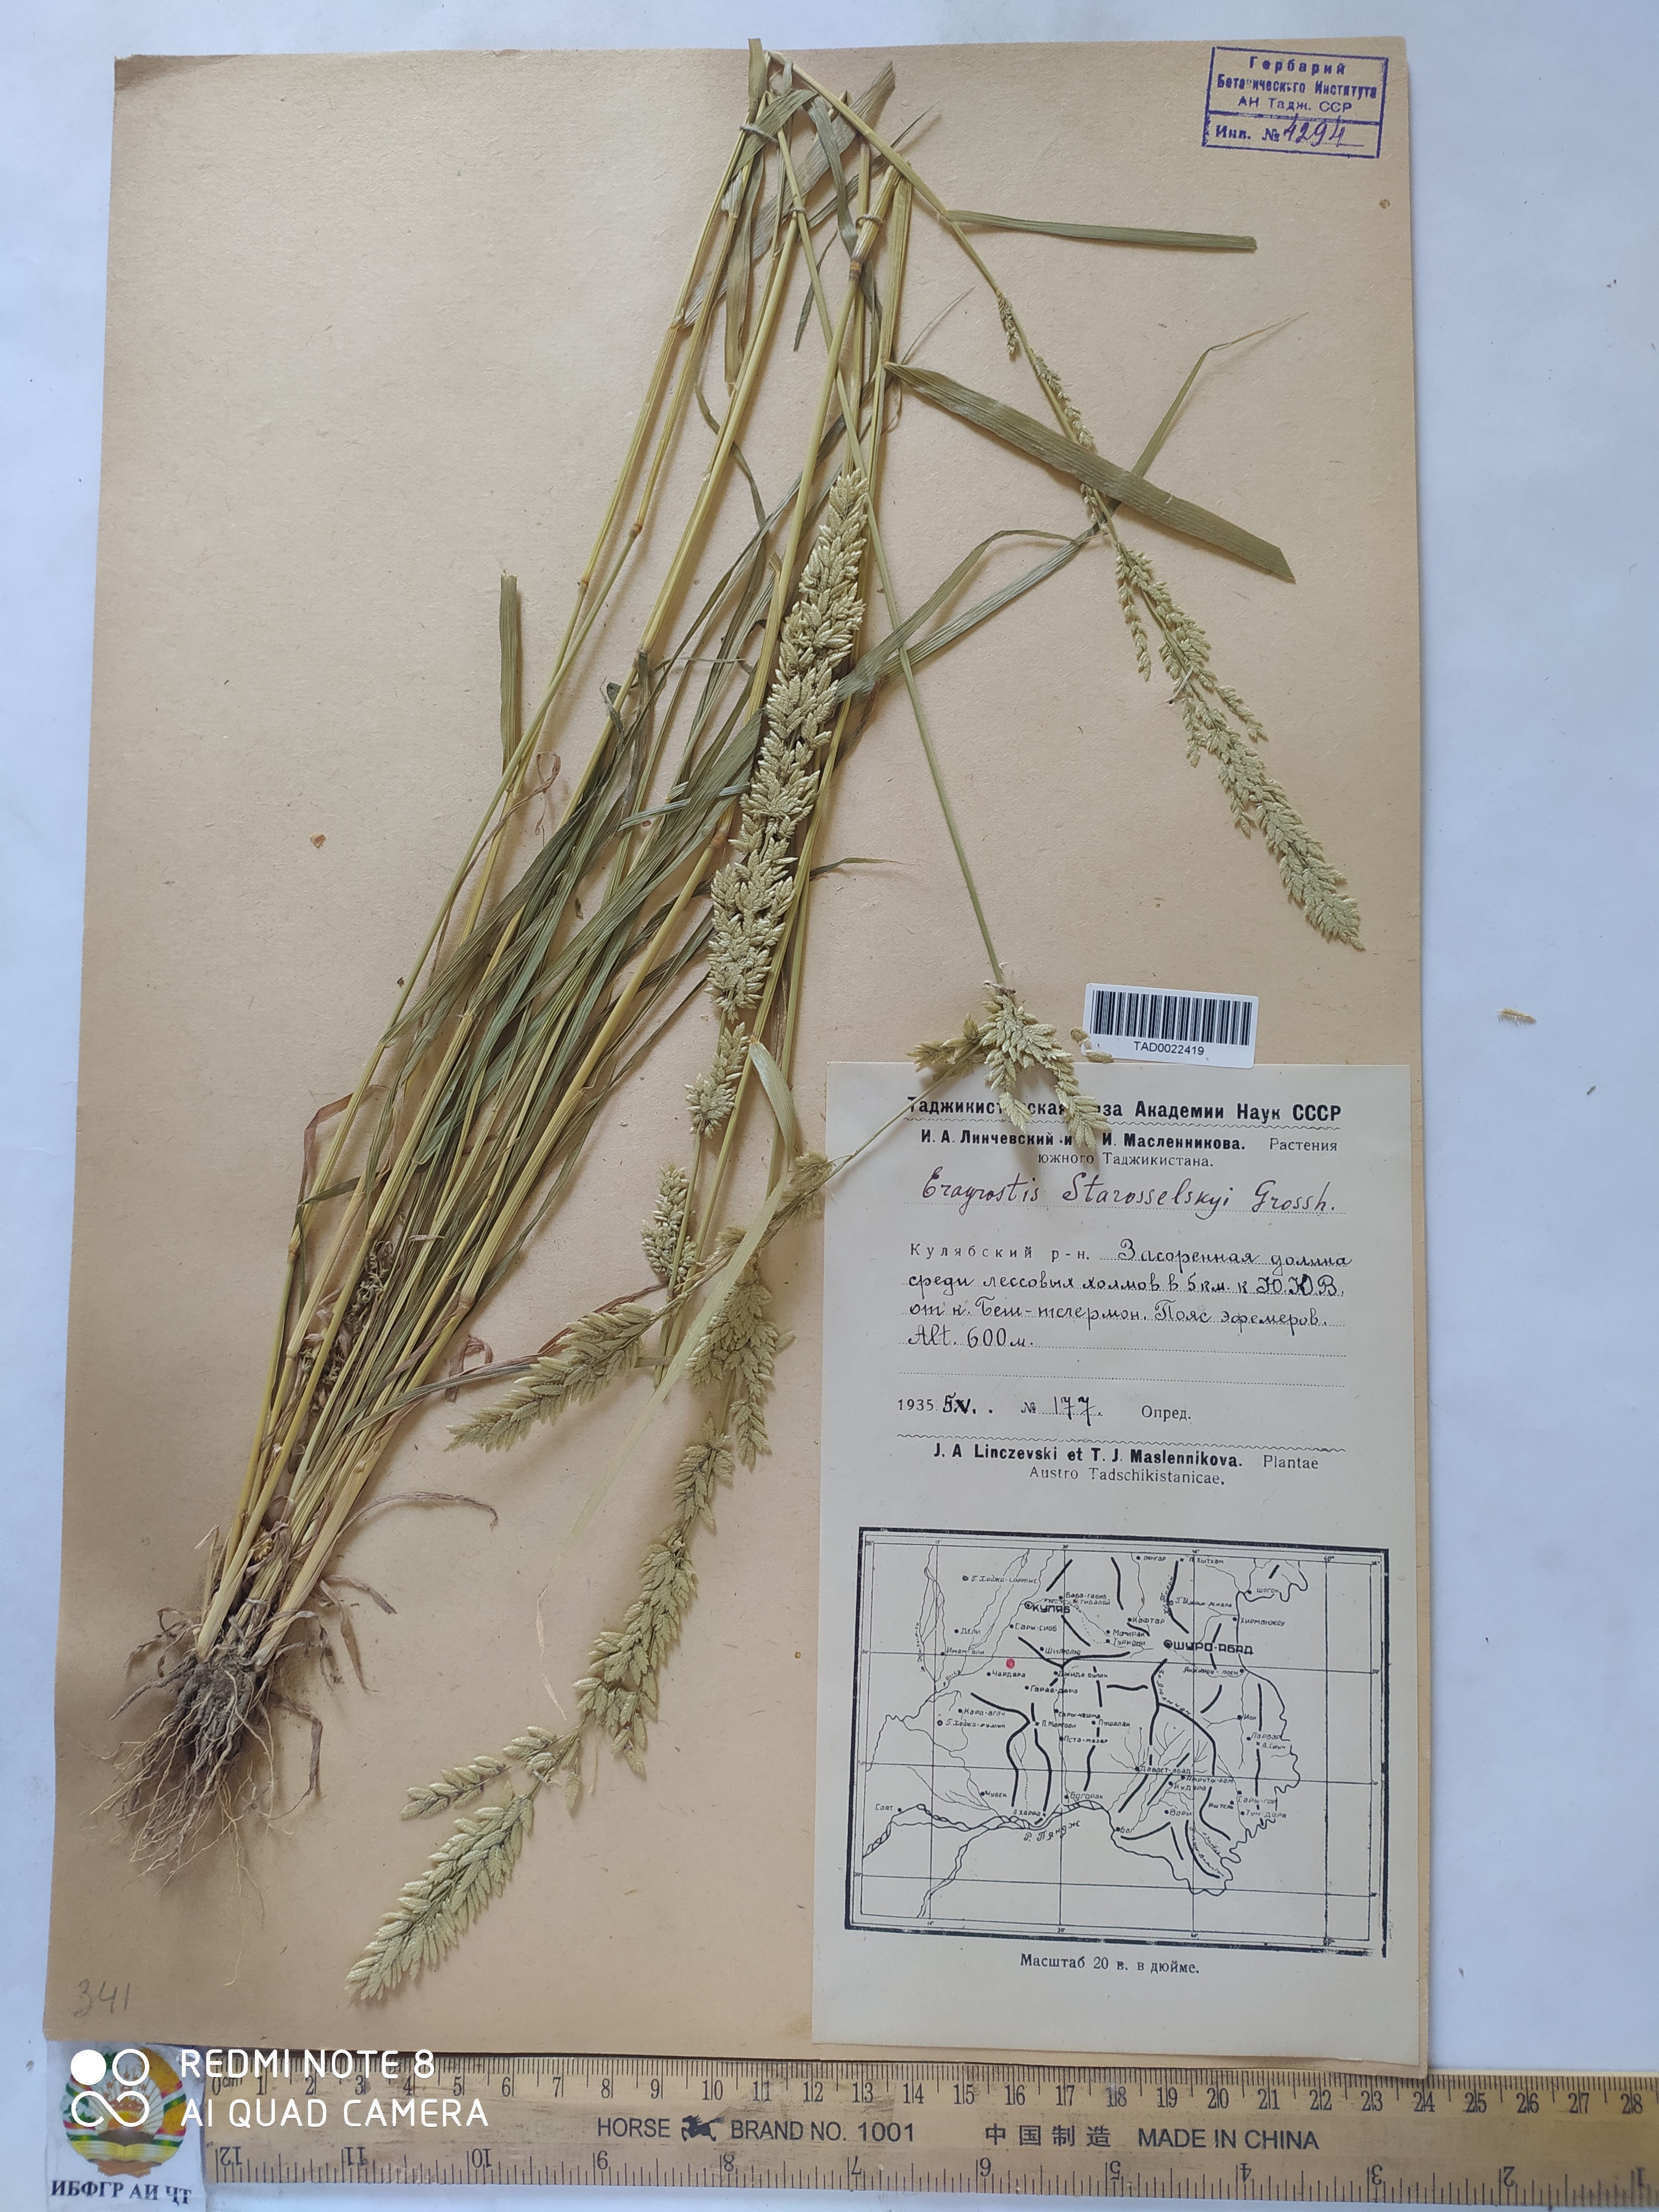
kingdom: Plantae
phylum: Tracheophyta
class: Liliopsida
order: Poales
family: Poaceae
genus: Eragrostis
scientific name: Eragrostis cilianensis
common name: Stinkgrass
